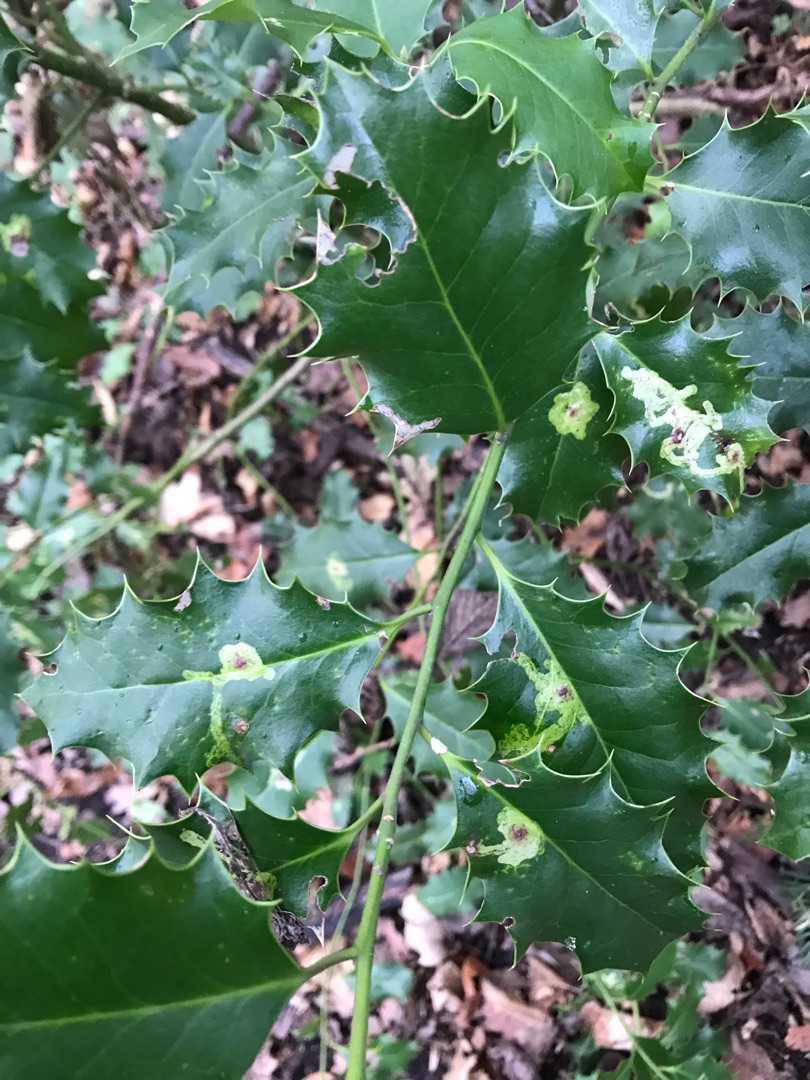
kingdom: Animalia
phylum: Arthropoda
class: Insecta
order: Diptera
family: Agromyzidae
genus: Phytomyza
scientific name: Phytomyza ilicis
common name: Kristtornminérflue
